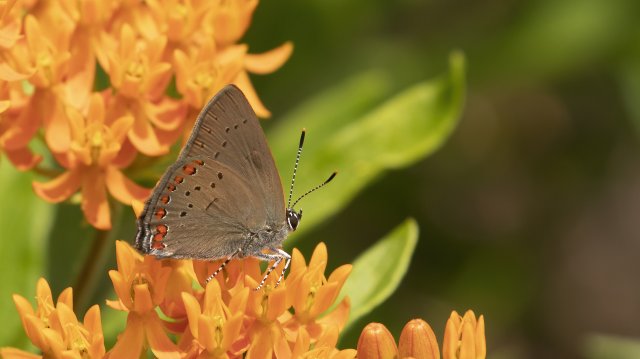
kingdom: Animalia
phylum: Arthropoda
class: Insecta
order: Lepidoptera
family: Lycaenidae
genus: Harkenclenus
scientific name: Harkenclenus titus
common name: Coral Hairstreak
